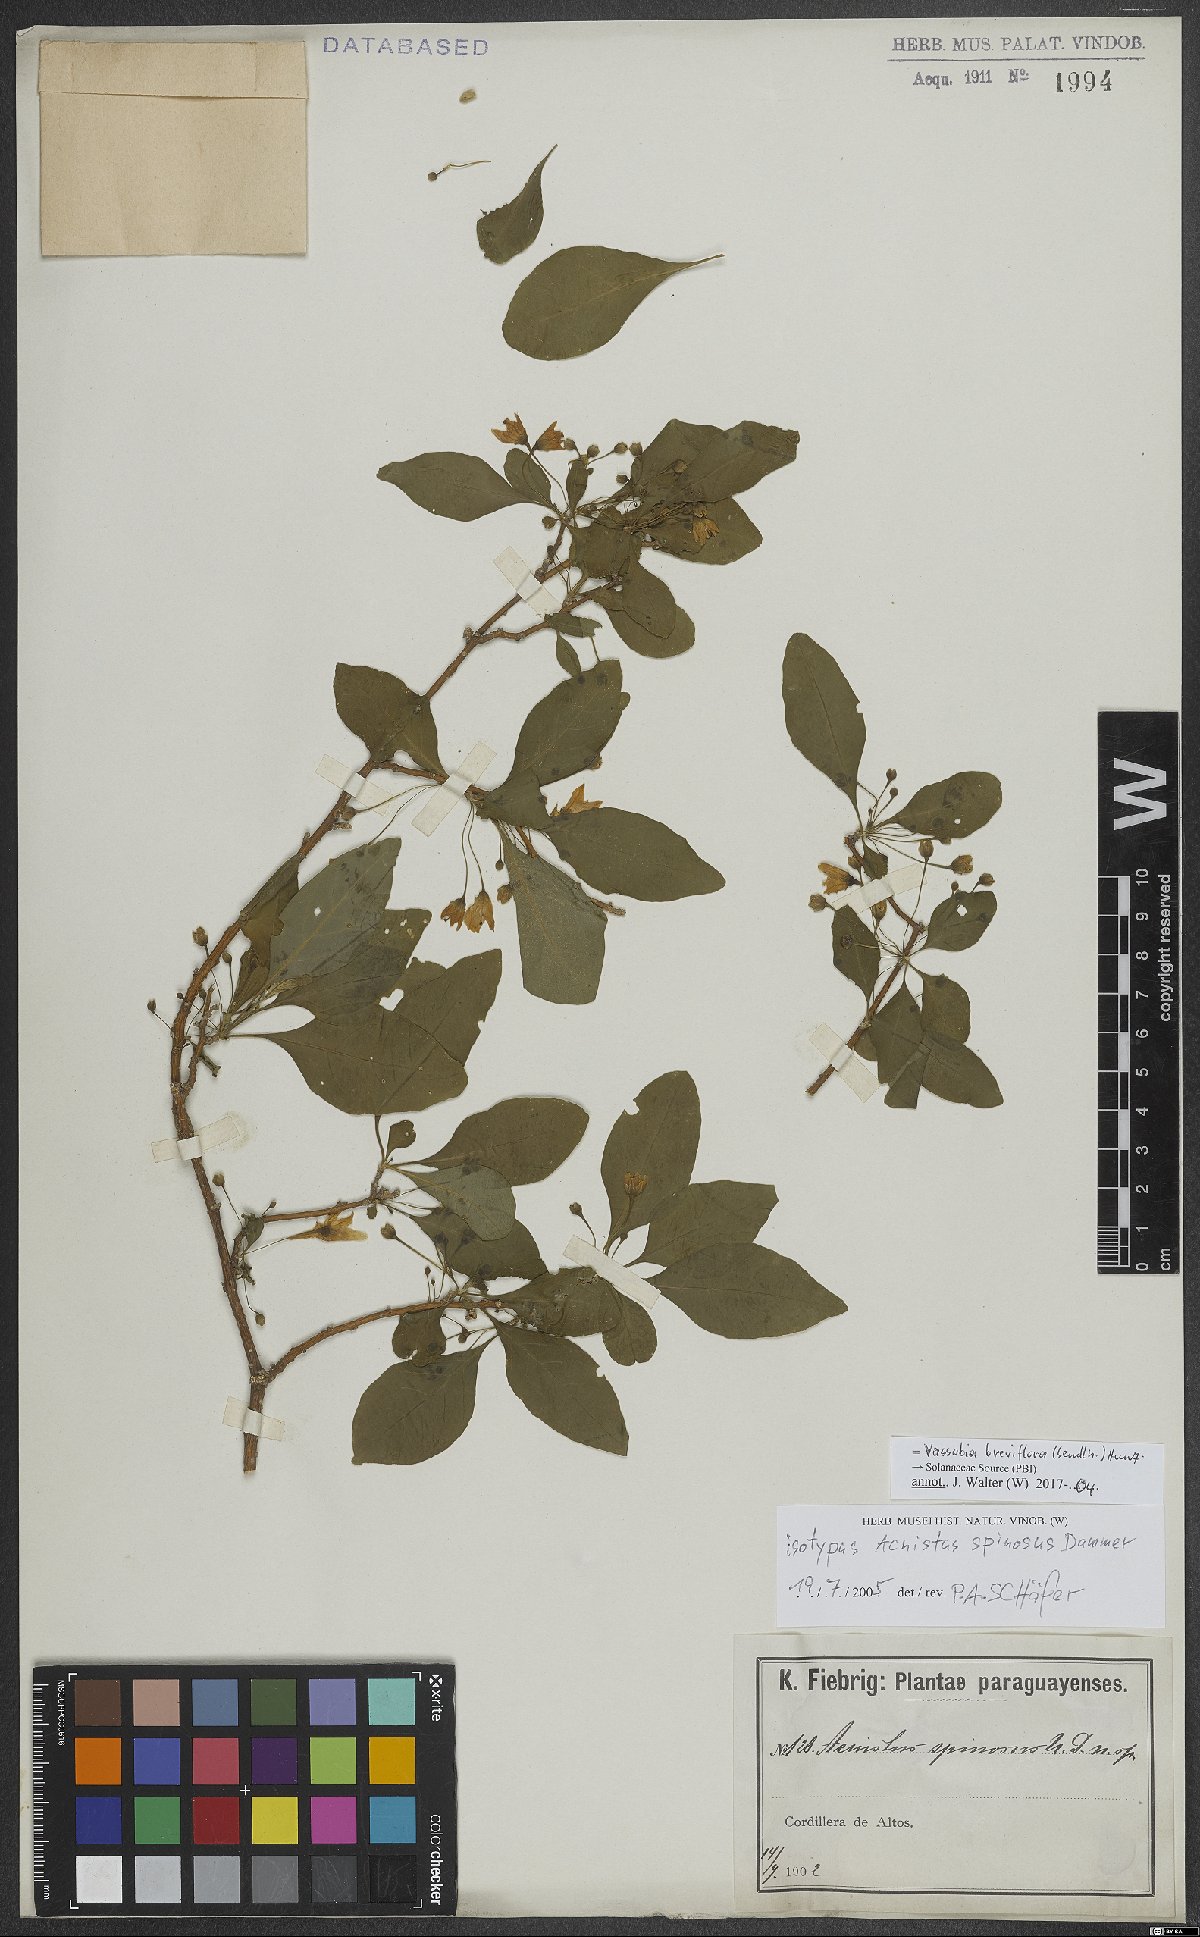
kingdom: Plantae
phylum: Tracheophyta
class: Magnoliopsida
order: Solanales
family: Solanaceae
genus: Vassobia
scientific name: Vassobia breviflora
